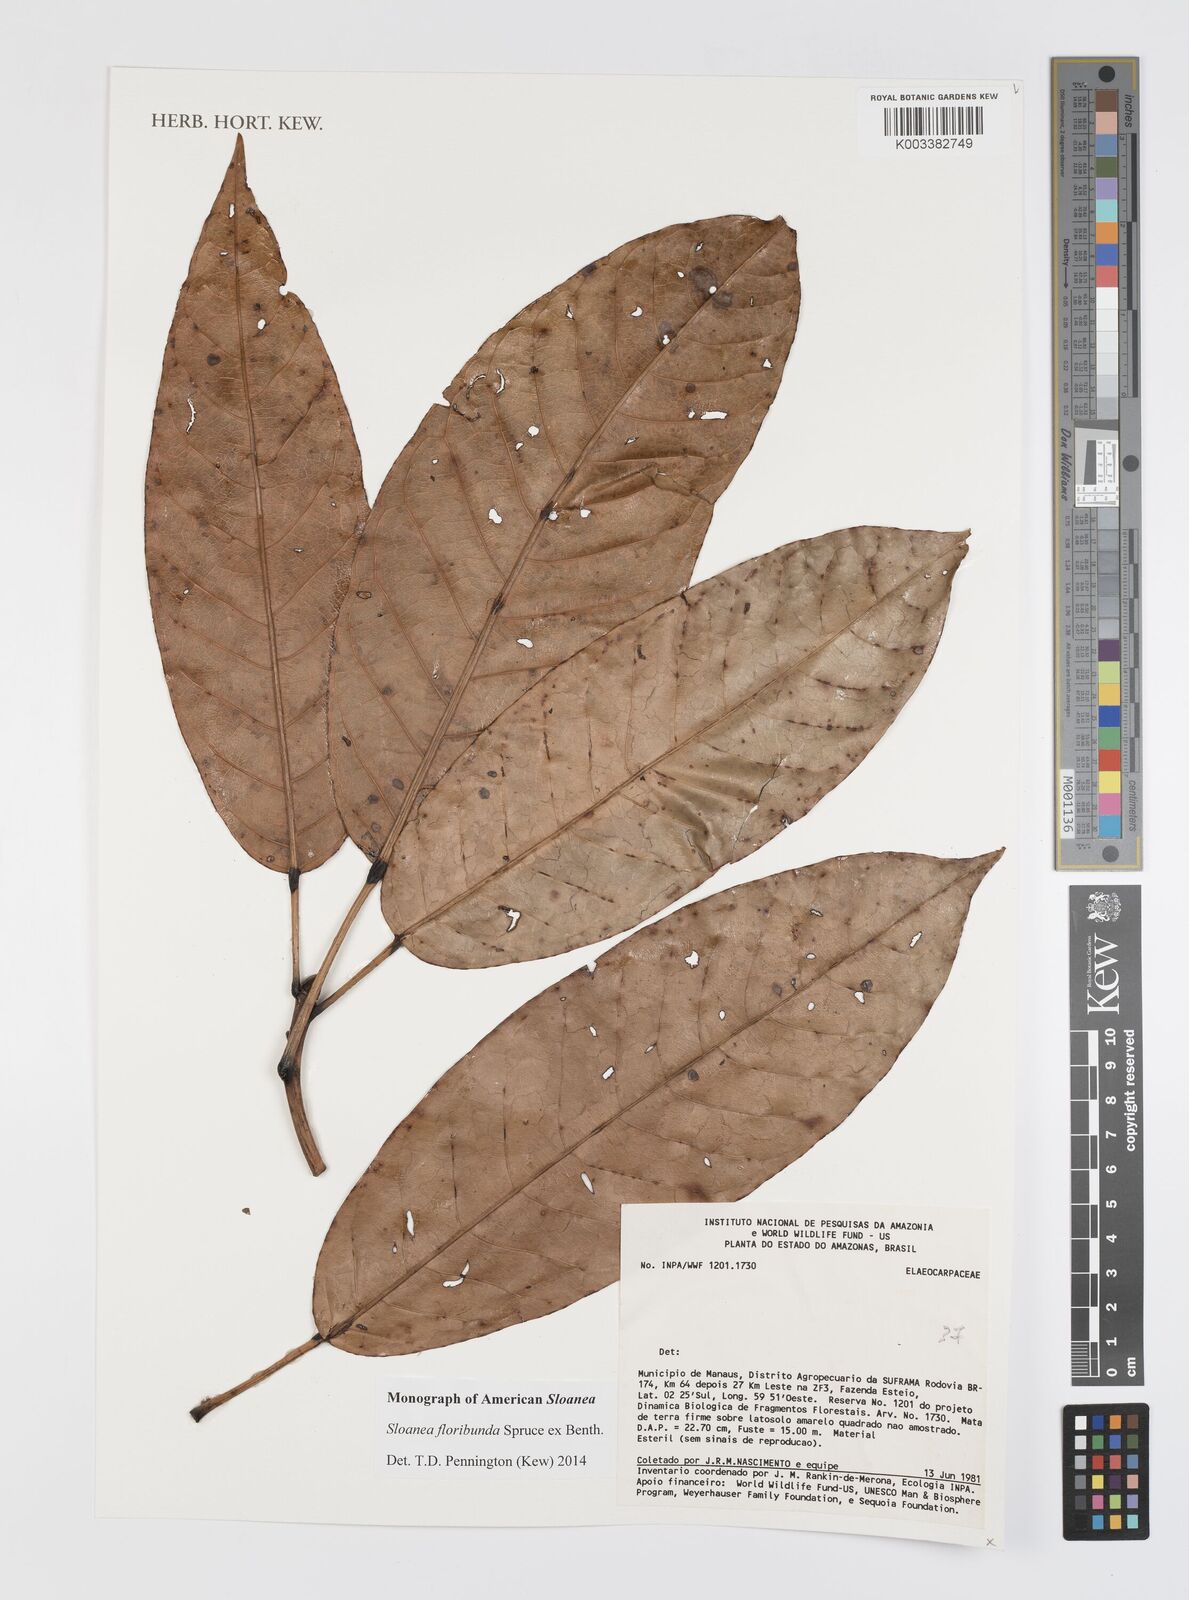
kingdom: Plantae
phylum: Tracheophyta
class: Magnoliopsida
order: Oxalidales
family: Elaeocarpaceae
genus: Sloanea
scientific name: Sloanea floribunda
